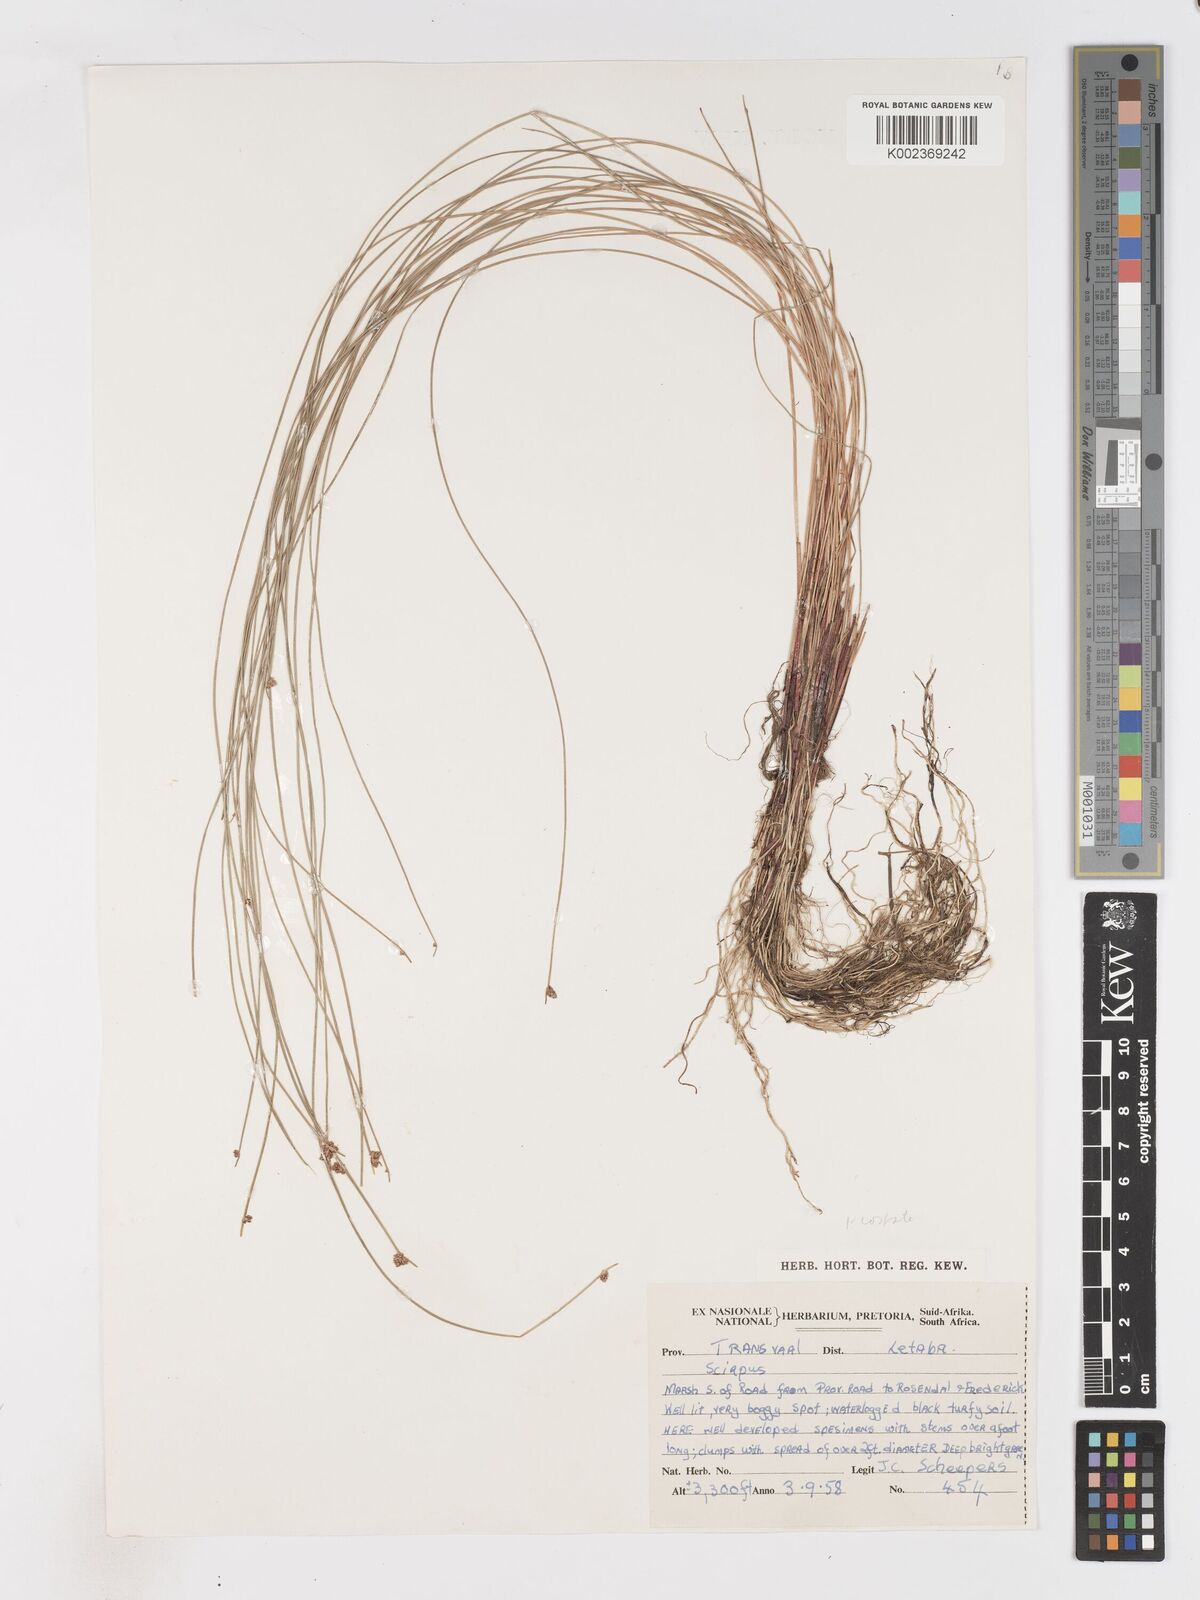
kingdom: Plantae
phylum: Tracheophyta
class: Liliopsida
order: Poales
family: Cyperaceae
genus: Isolepis
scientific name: Isolepis costata
